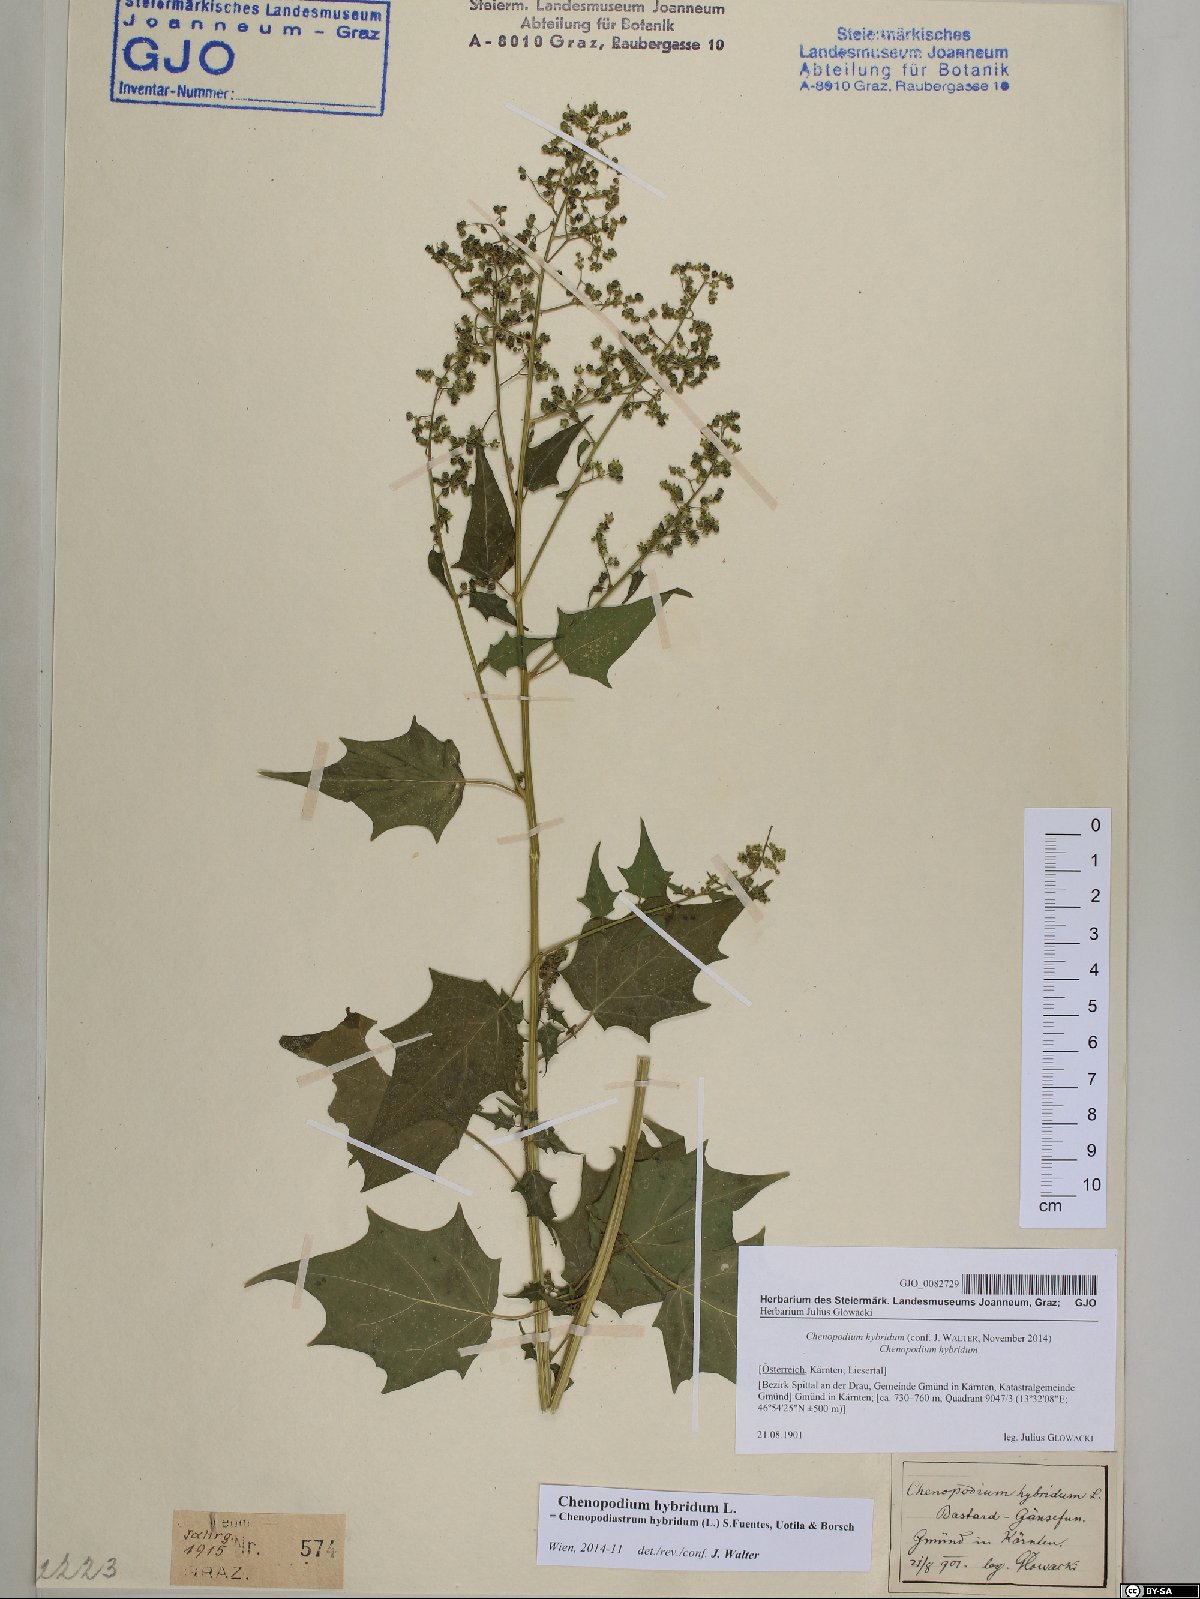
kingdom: Plantae
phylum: Tracheophyta
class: Magnoliopsida
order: Caryophyllales
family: Amaranthaceae
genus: Chenopodiastrum
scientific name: Chenopodiastrum hybridum
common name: Mapleleaf goosefoot
